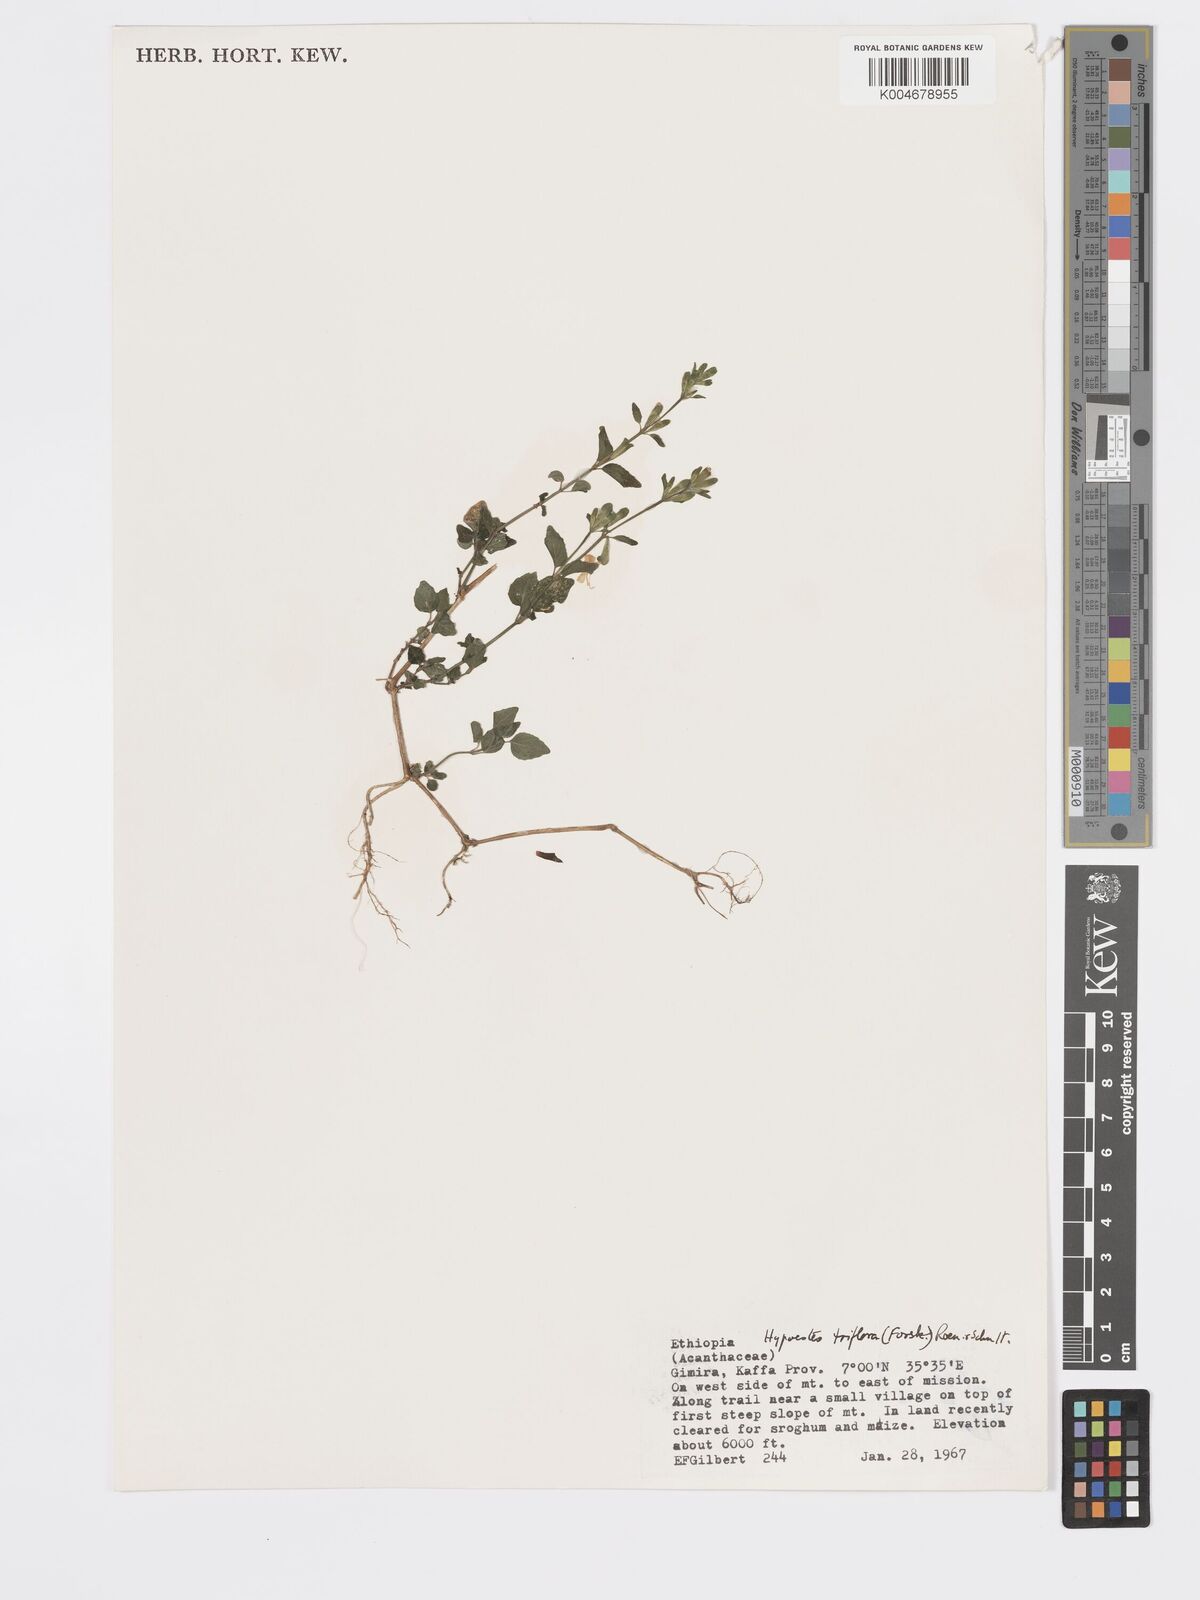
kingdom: Plantae
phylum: Tracheophyta
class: Magnoliopsida
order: Lamiales
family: Acanthaceae
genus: Hypoestes
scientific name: Hypoestes triflora
